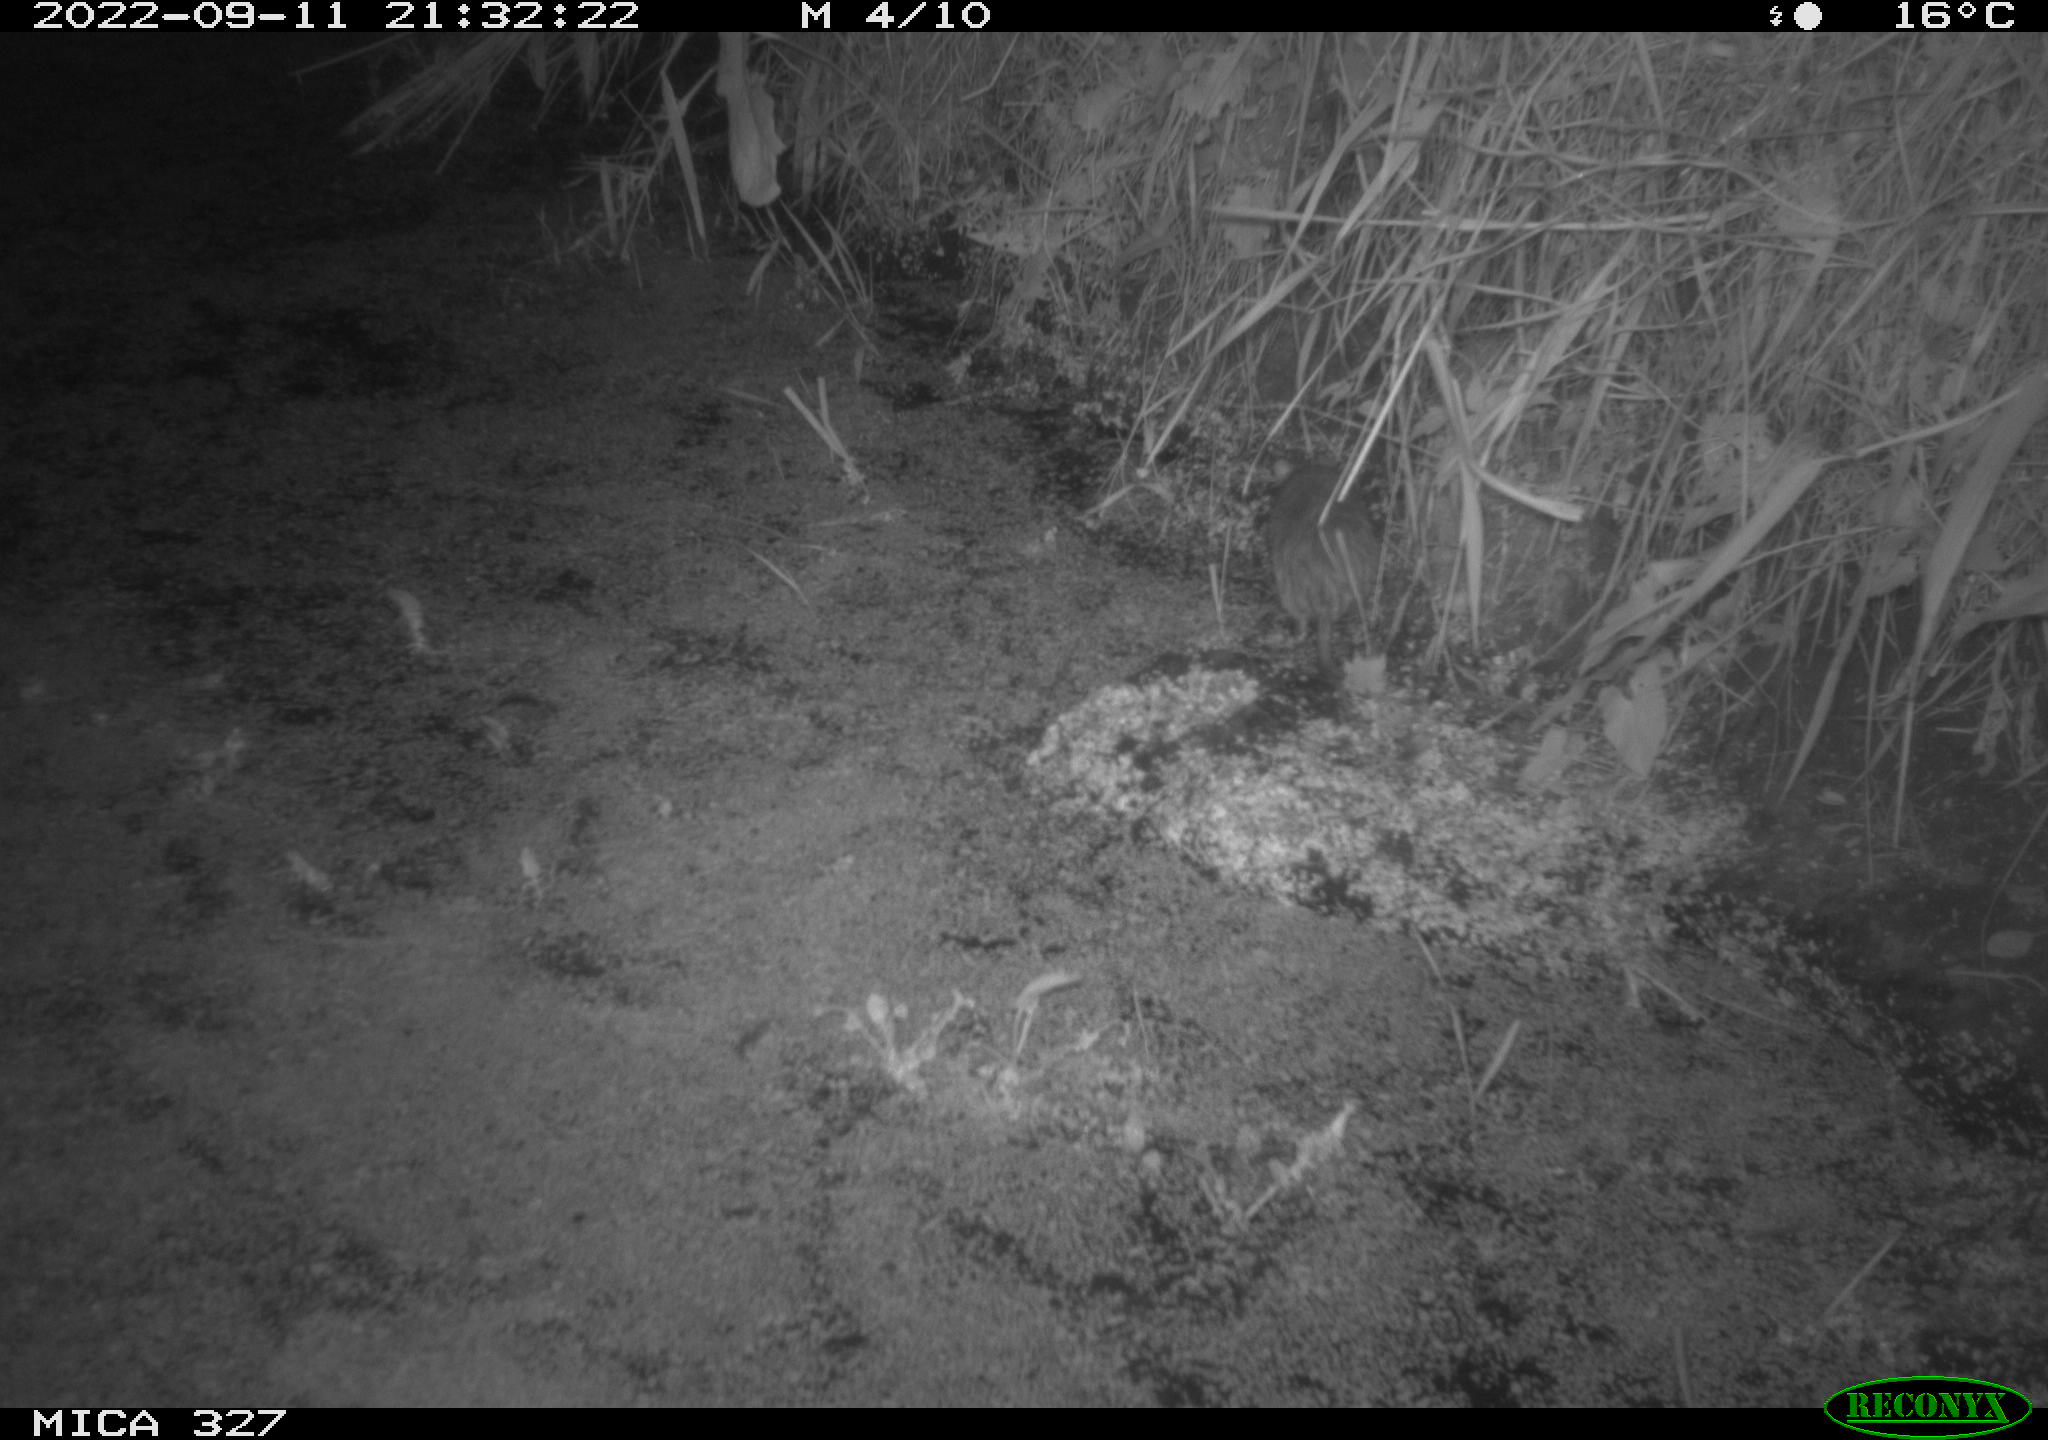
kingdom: Animalia
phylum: Chordata
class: Mammalia
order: Rodentia
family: Muridae
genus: Rattus
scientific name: Rattus norvegicus
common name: Brown rat
